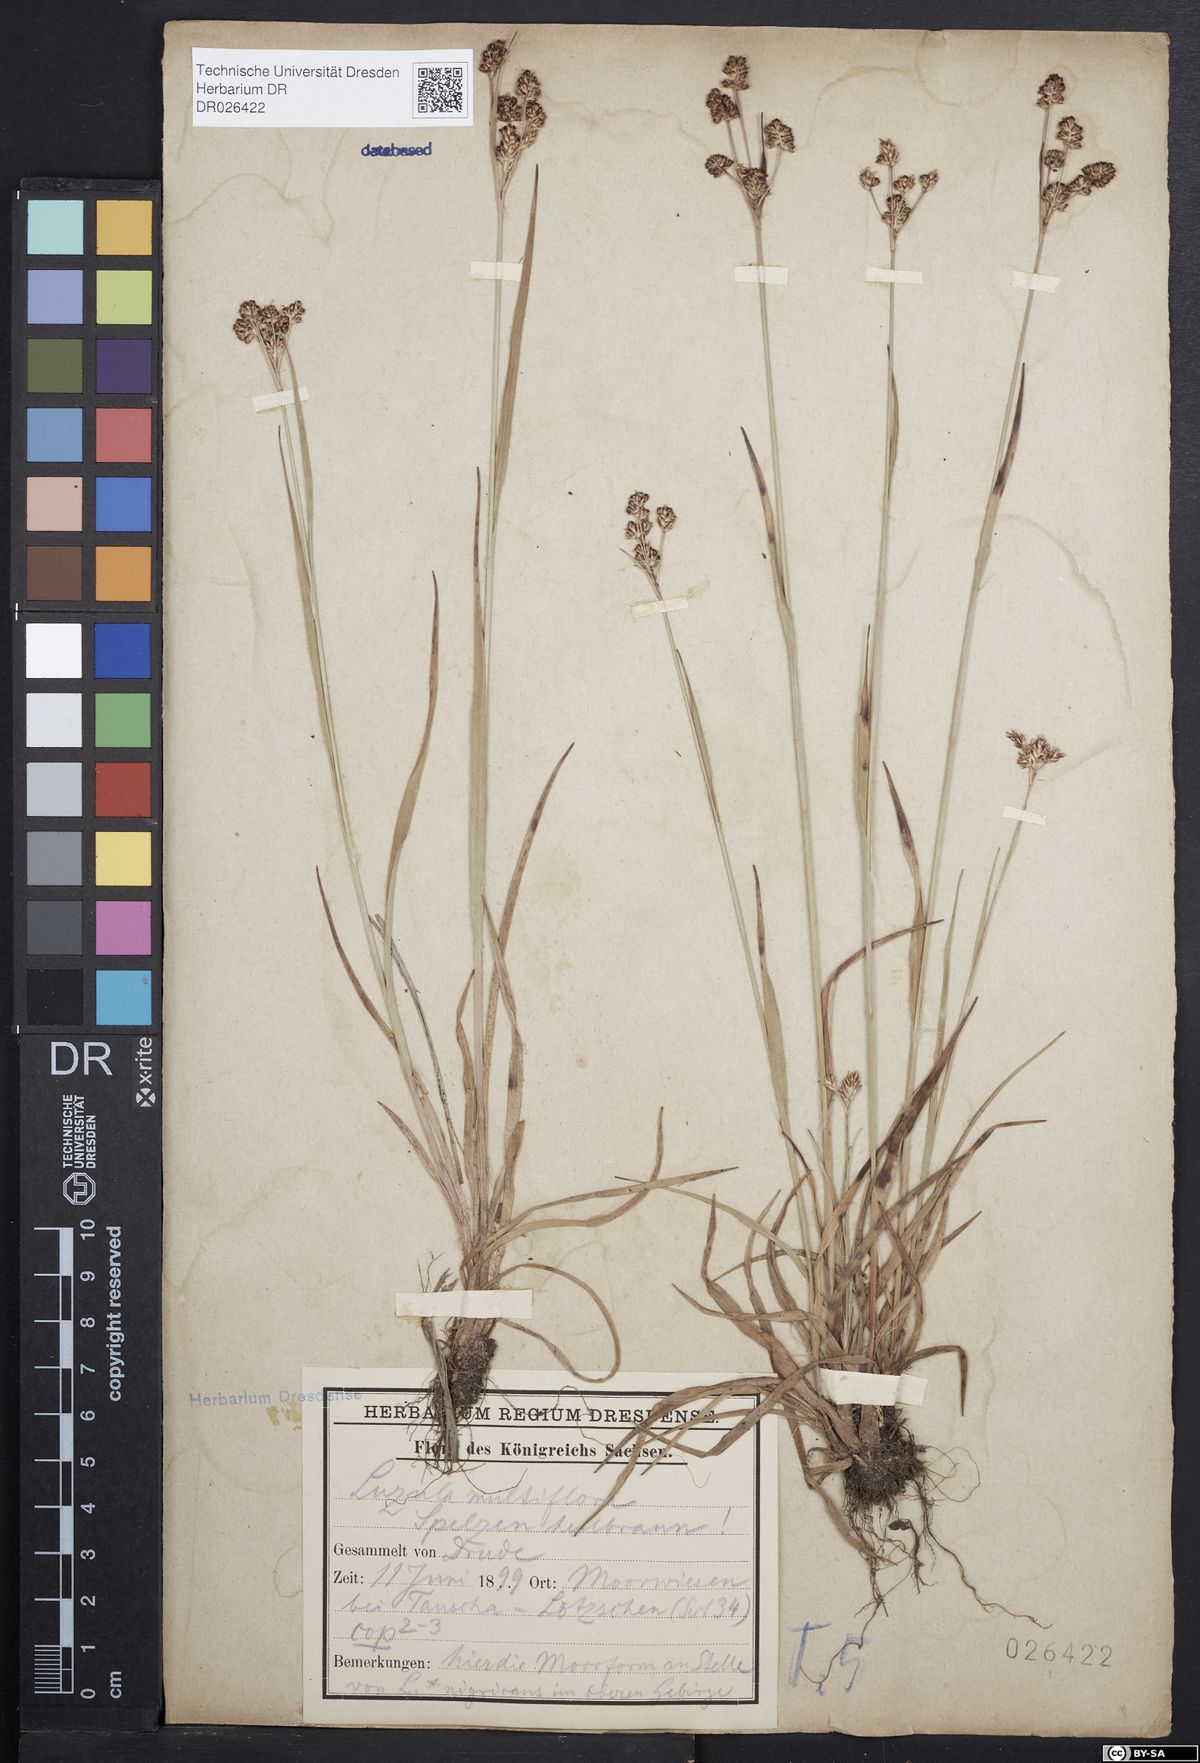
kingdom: Plantae
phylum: Tracheophyta
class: Liliopsida
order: Poales
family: Juncaceae
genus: Luzula
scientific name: Luzula multiflora
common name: Heath wood-rush
